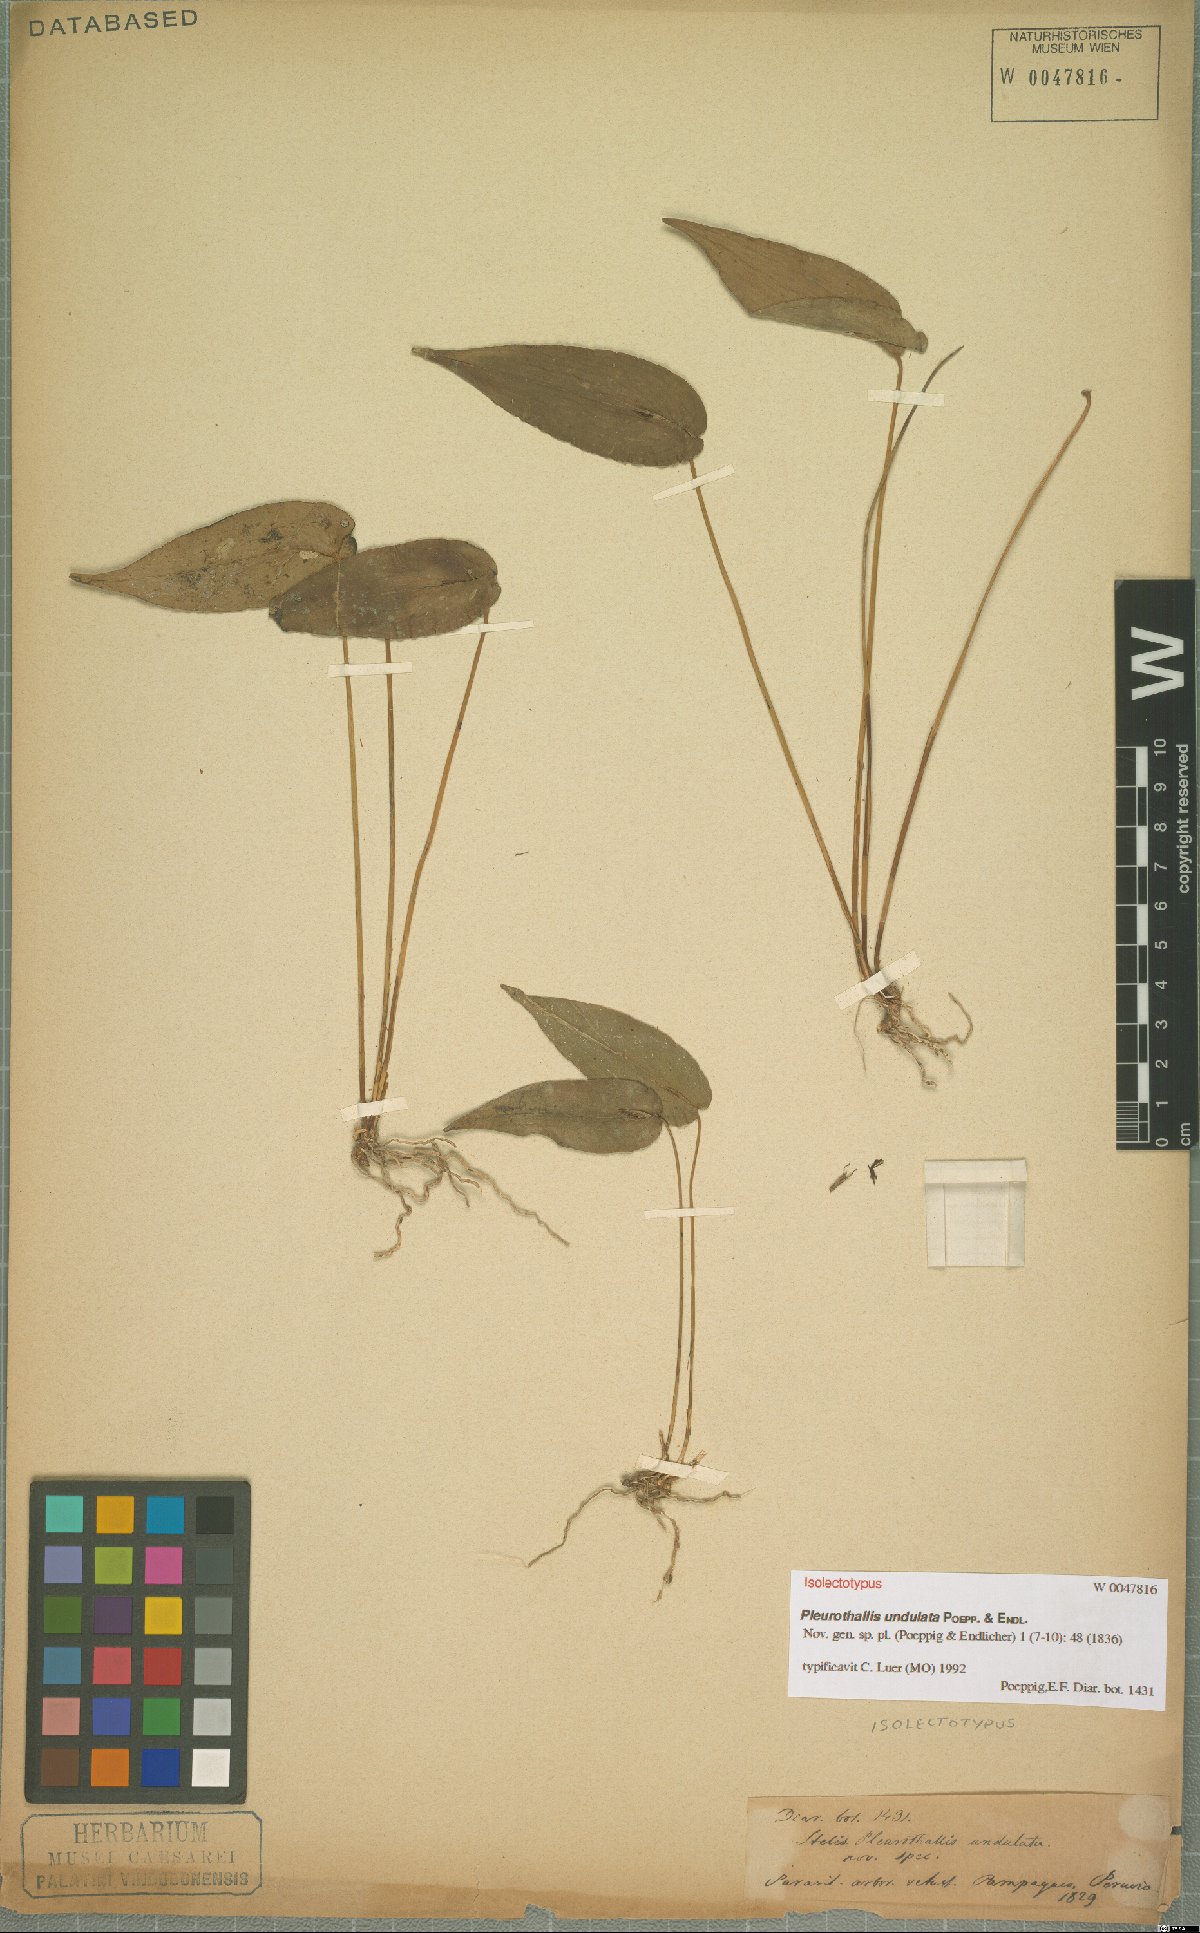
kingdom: Plantae
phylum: Tracheophyta
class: Liliopsida
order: Asparagales
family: Orchidaceae
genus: Pleurothallis
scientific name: Pleurothallis undulata
